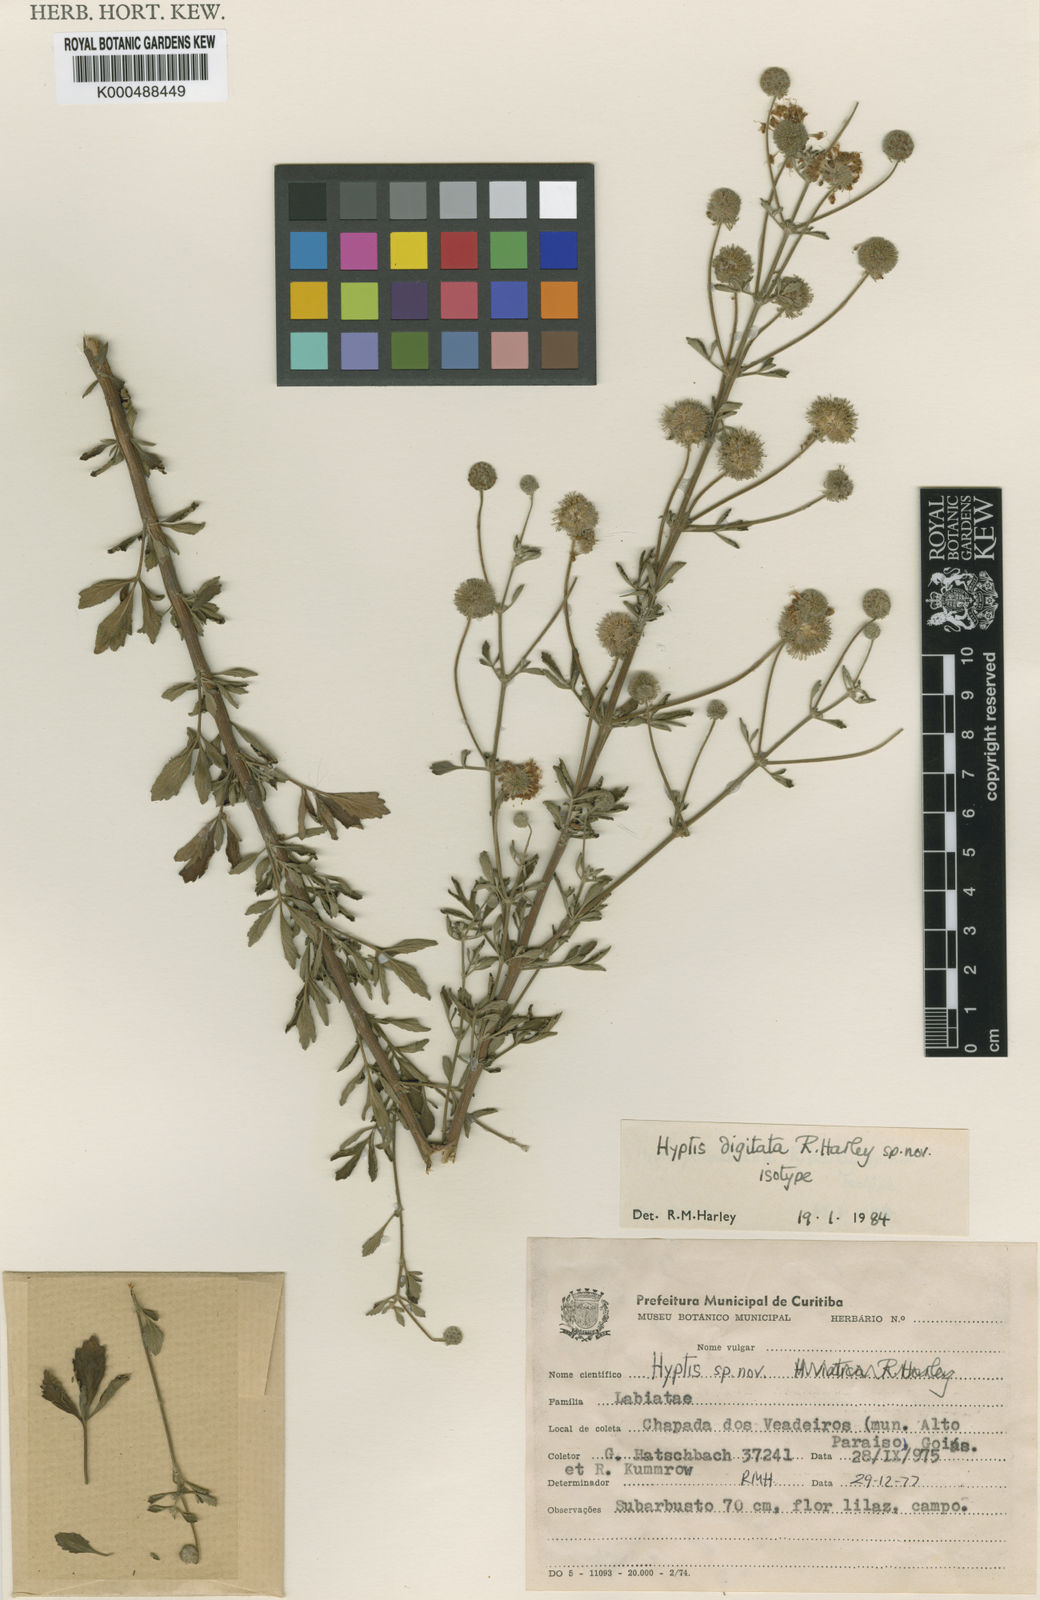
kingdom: Plantae
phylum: Tracheophyta
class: Magnoliopsida
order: Lamiales
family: Lamiaceae
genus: Cyanocephalus
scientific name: Cyanocephalus digitatus
